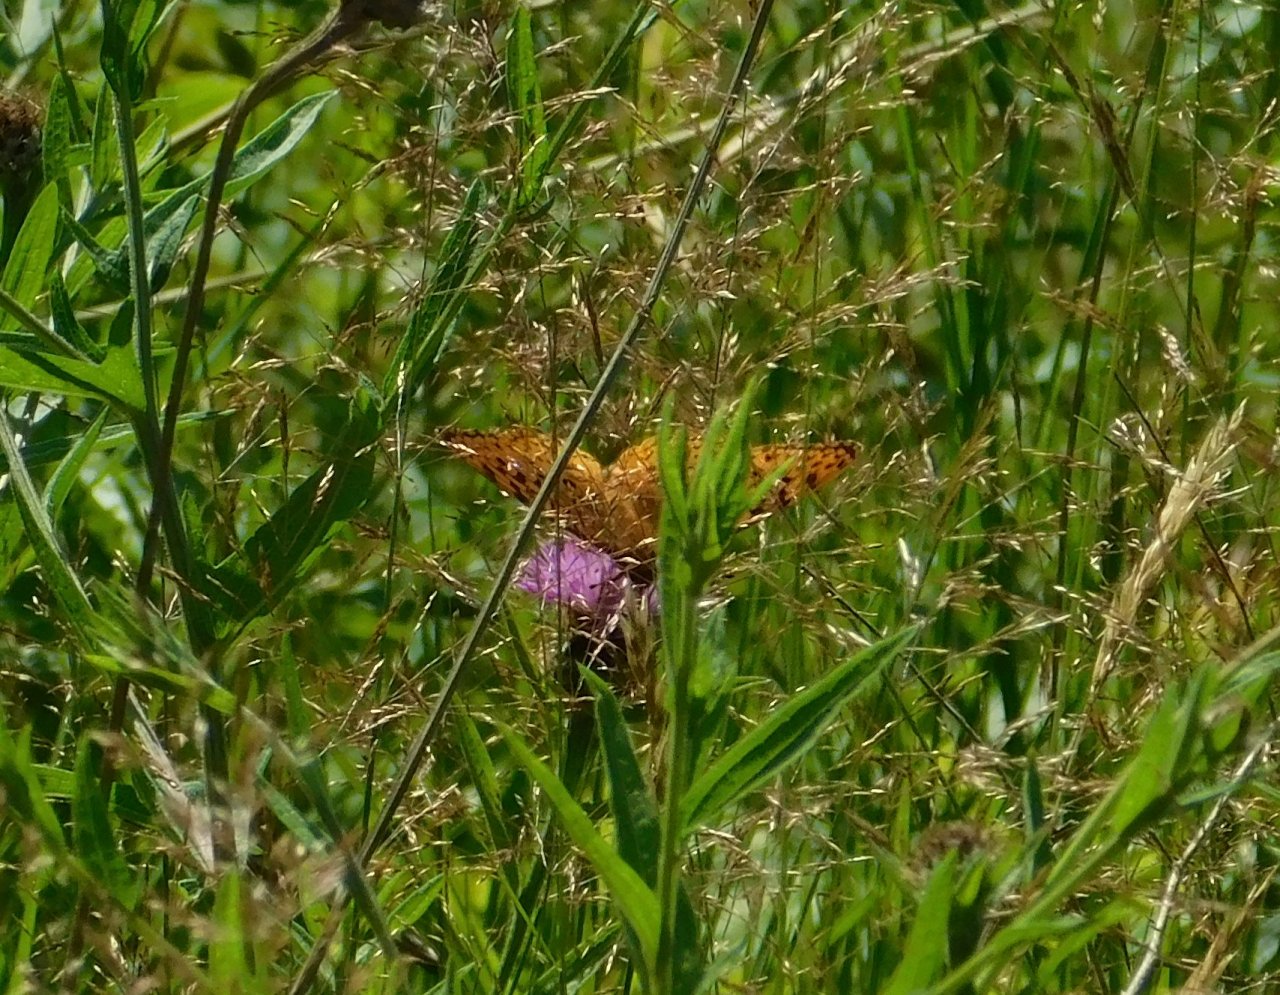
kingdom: Animalia
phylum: Arthropoda
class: Insecta
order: Lepidoptera
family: Nymphalidae
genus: Speyeria
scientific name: Speyeria cybele
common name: Great Spangled Fritillary
